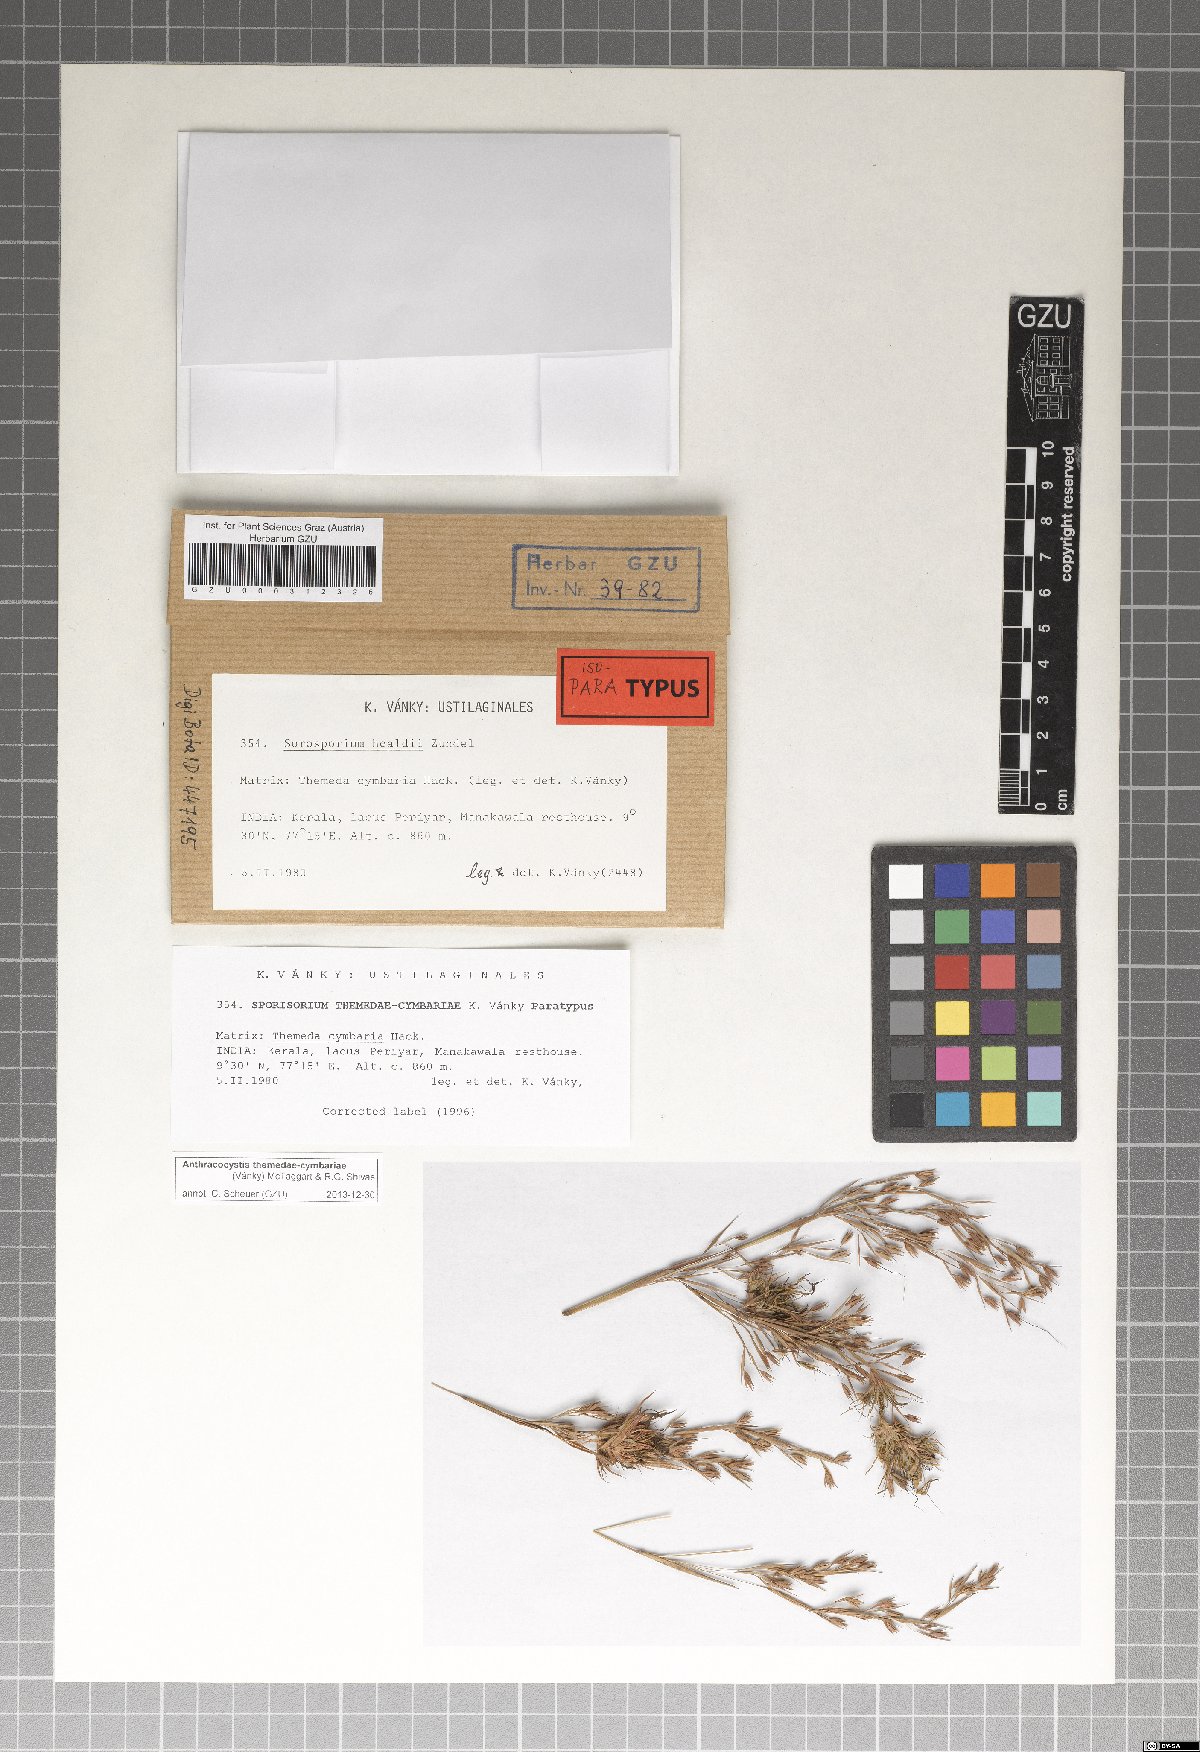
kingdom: Fungi
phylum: Basidiomycota
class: Ustilaginomycetes
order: Ustilaginales
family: Ustilaginaceae
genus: Anthracocystis
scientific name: Anthracocystis themedae-cymbariae
